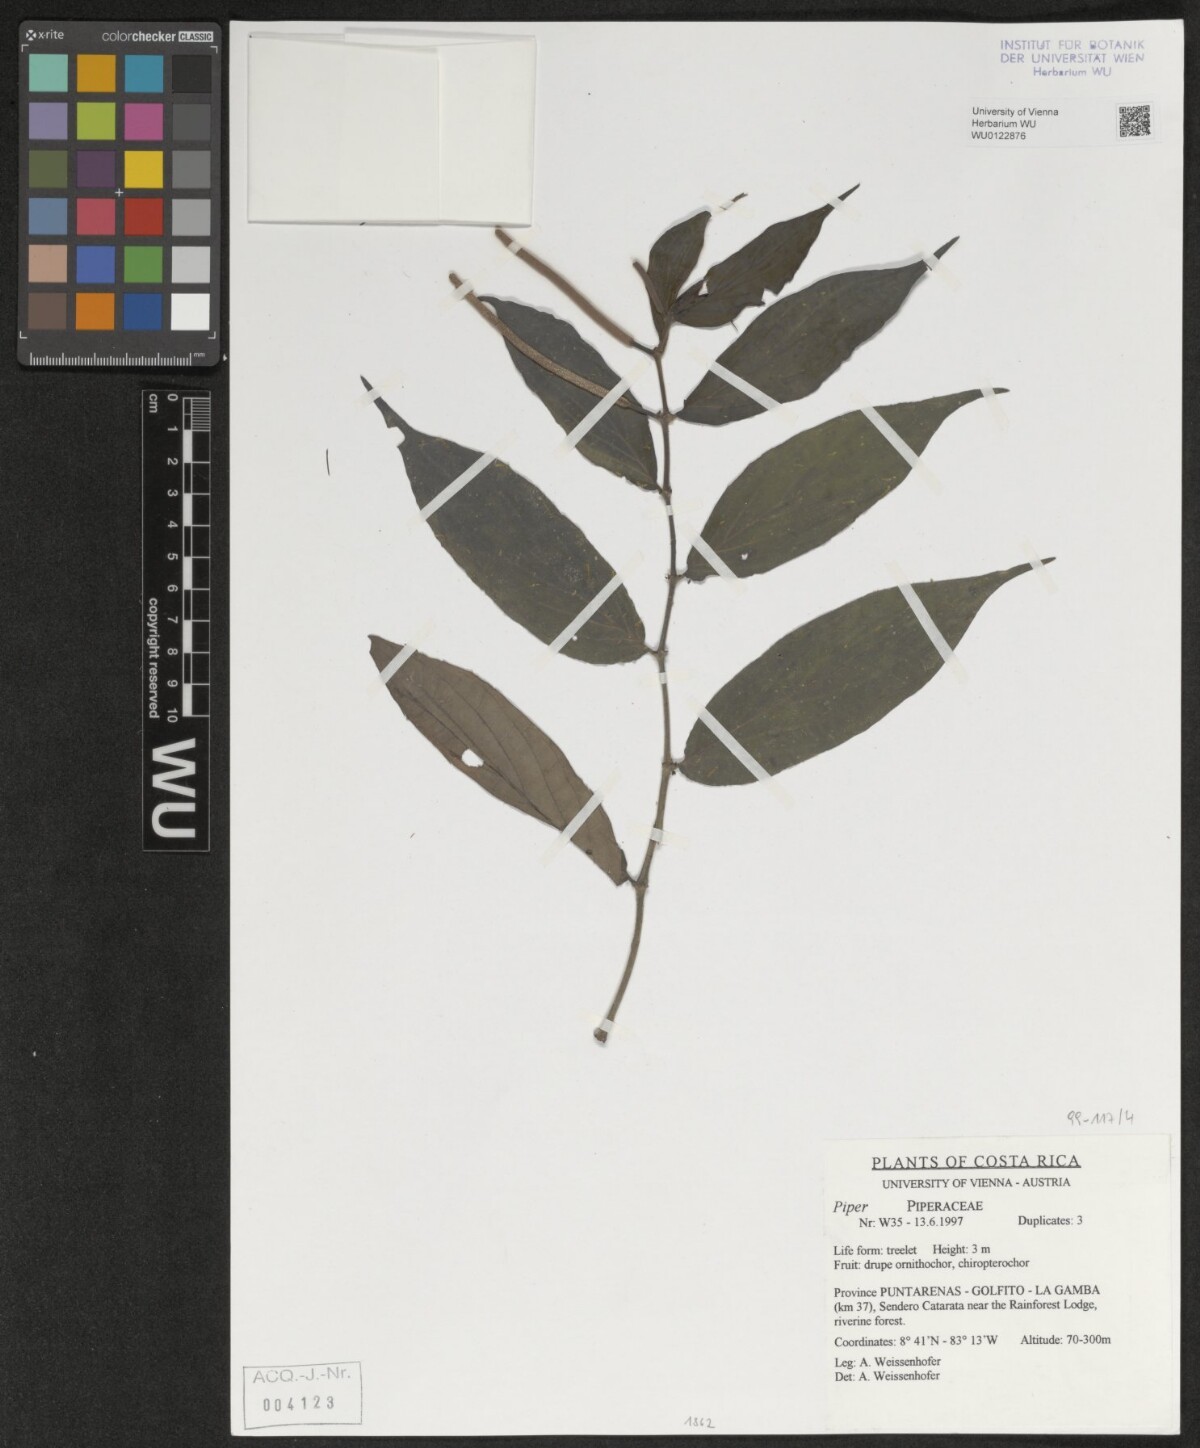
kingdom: Plantae
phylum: Tracheophyta
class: Magnoliopsida
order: Piperales
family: Piperaceae
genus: Piper
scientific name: Piper
